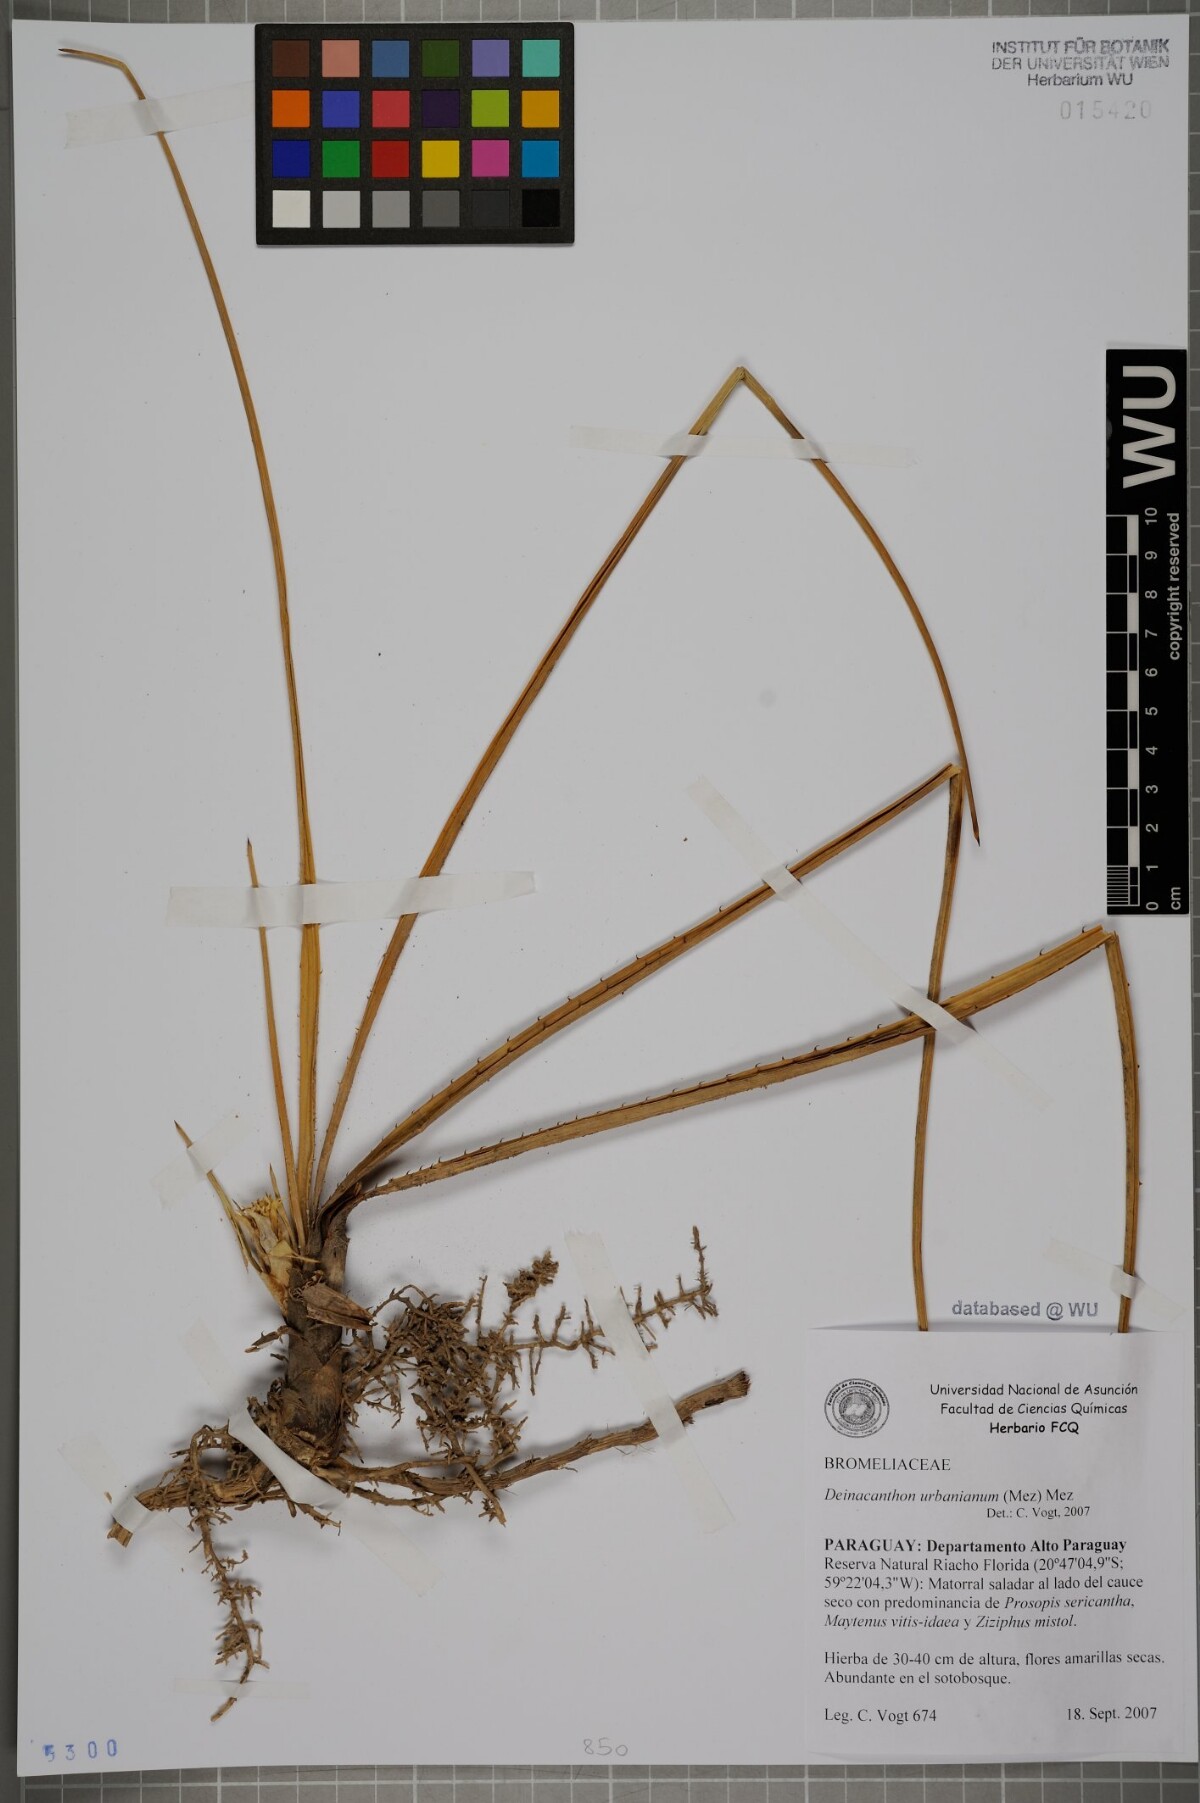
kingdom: Plantae
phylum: Tracheophyta
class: Liliopsida
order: Poales
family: Bromeliaceae
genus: Deinacanthon
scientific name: Deinacanthon urbanianum
